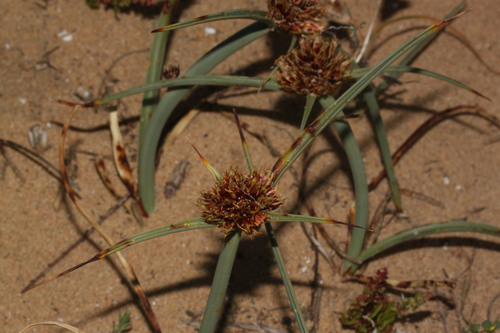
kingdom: Plantae
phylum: Tracheophyta
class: Liliopsida
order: Poales
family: Cyperaceae
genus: Cyperus
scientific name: Cyperus capitatus
